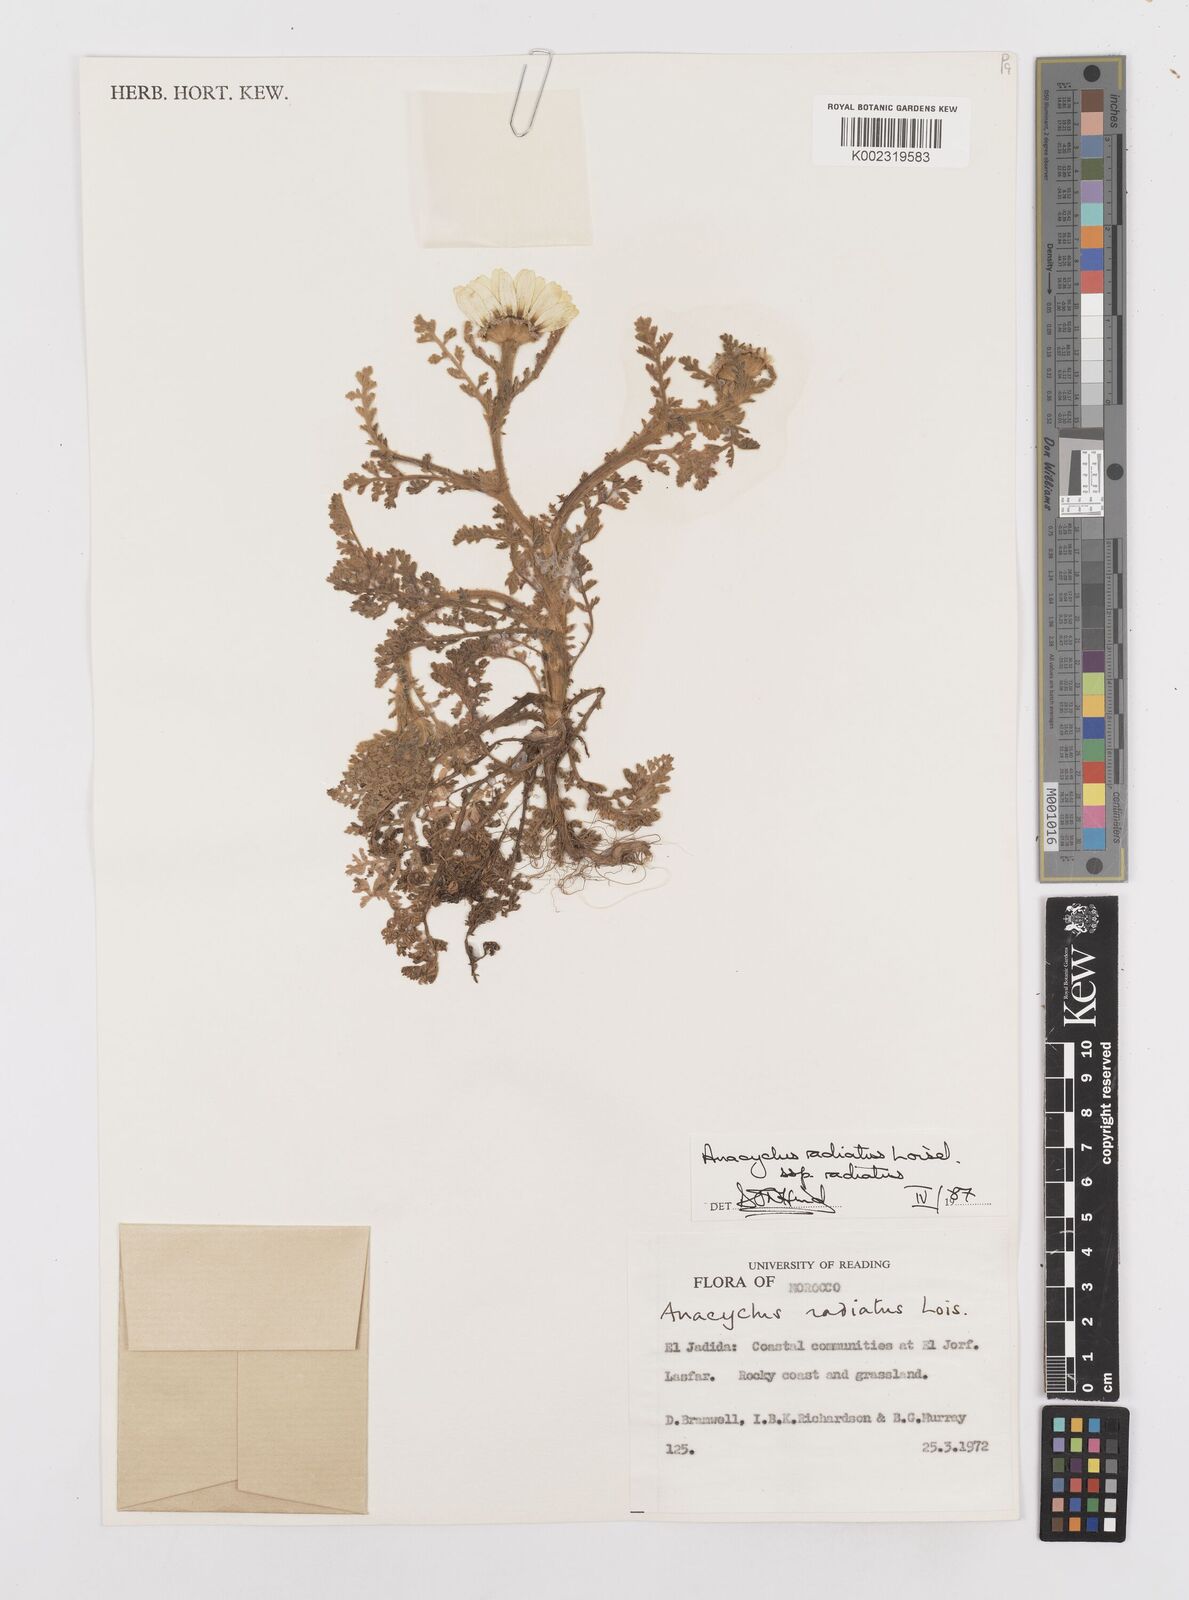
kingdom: Plantae
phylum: Tracheophyta
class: Magnoliopsida
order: Asterales
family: Asteraceae
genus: Anacyclus
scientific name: Anacyclus radiatus
